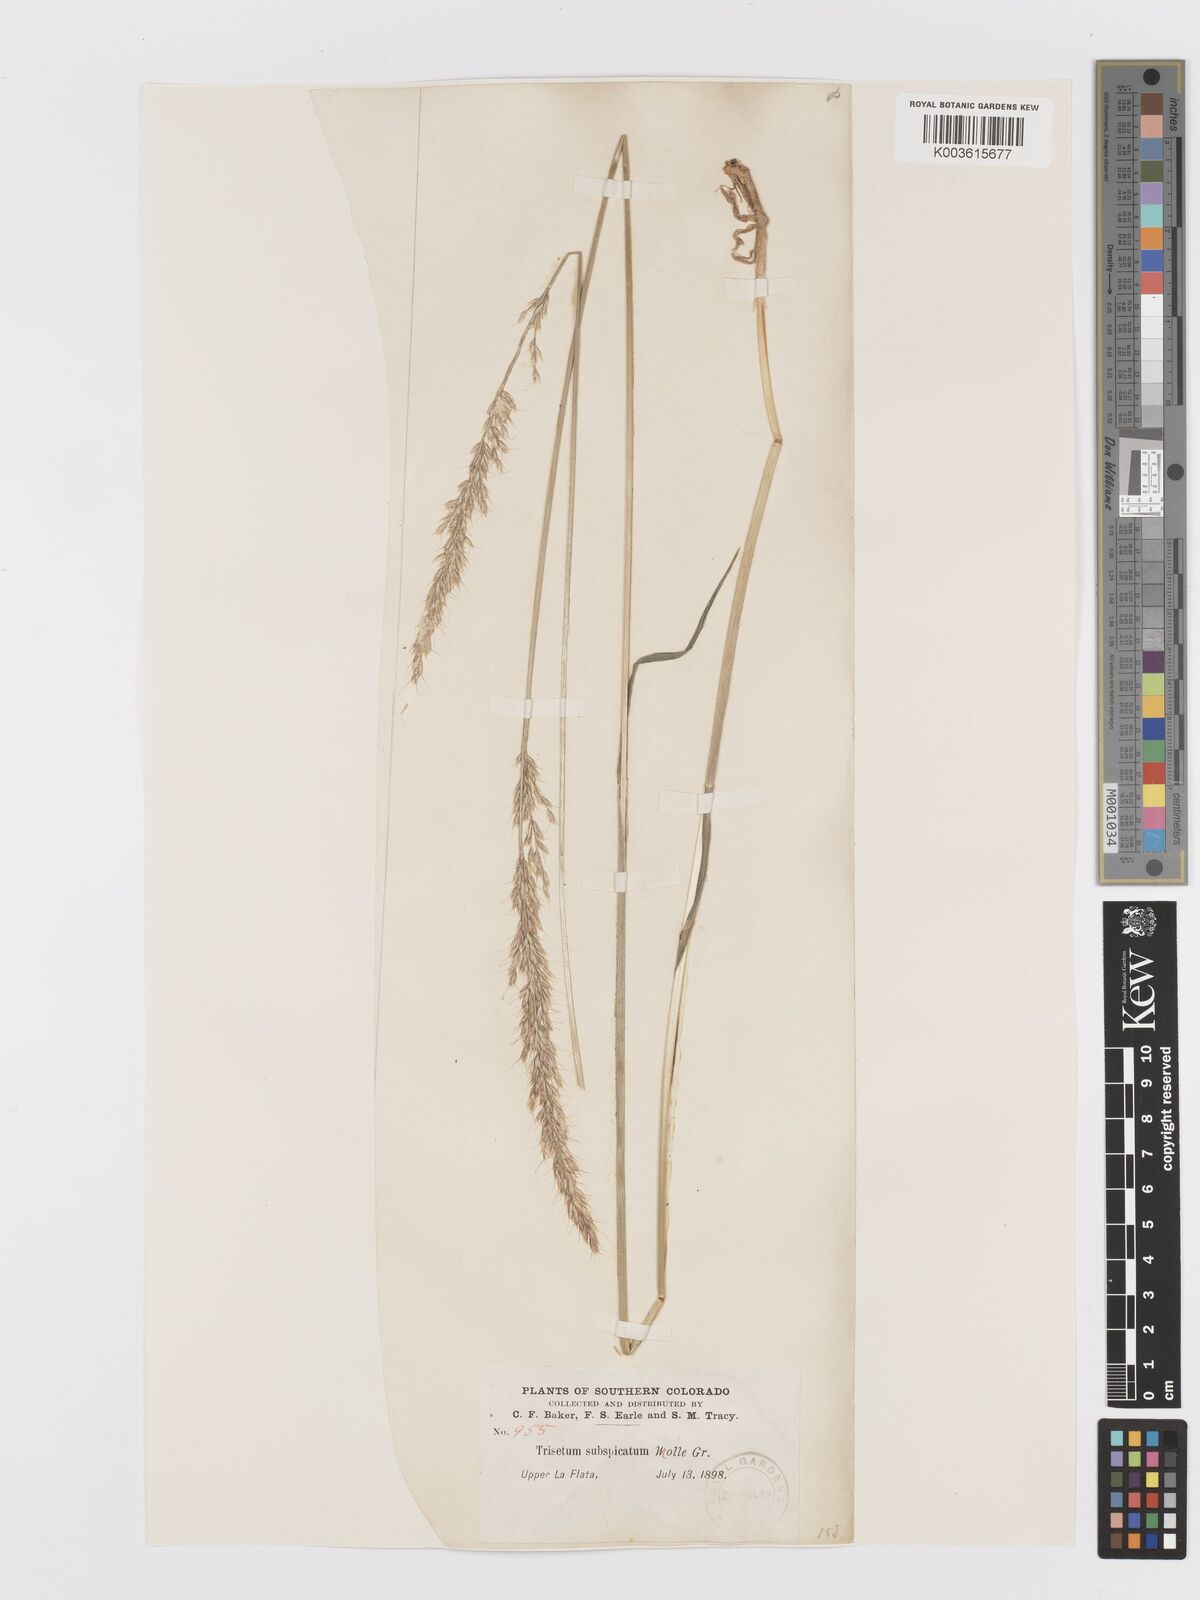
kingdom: Plantae
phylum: Tracheophyta
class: Liliopsida
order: Poales
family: Poaceae
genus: Koeleria
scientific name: Koeleria spicata
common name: Mountain trisetum
